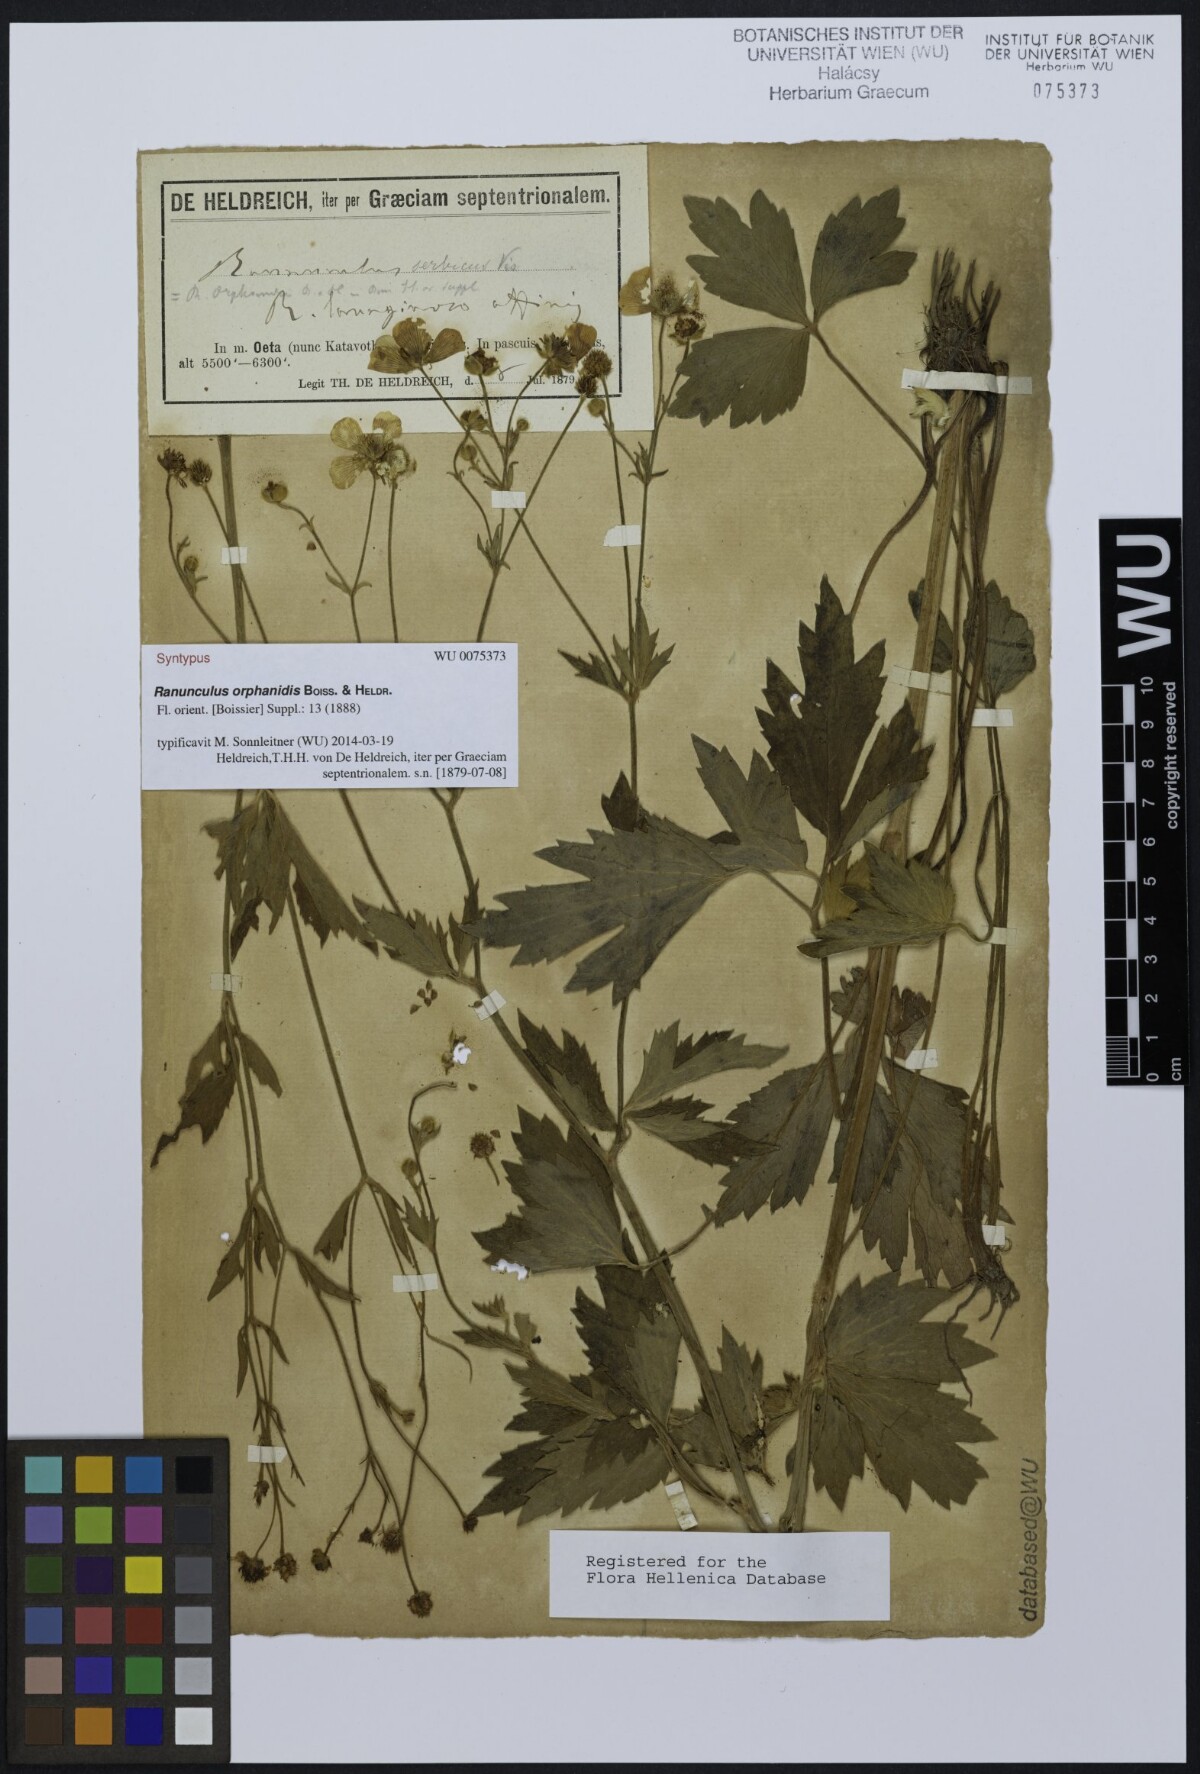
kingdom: Plantae
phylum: Tracheophyta
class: Magnoliopsida
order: Ranunculales
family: Ranunculaceae
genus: Ranunculus
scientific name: Ranunculus serbicus
